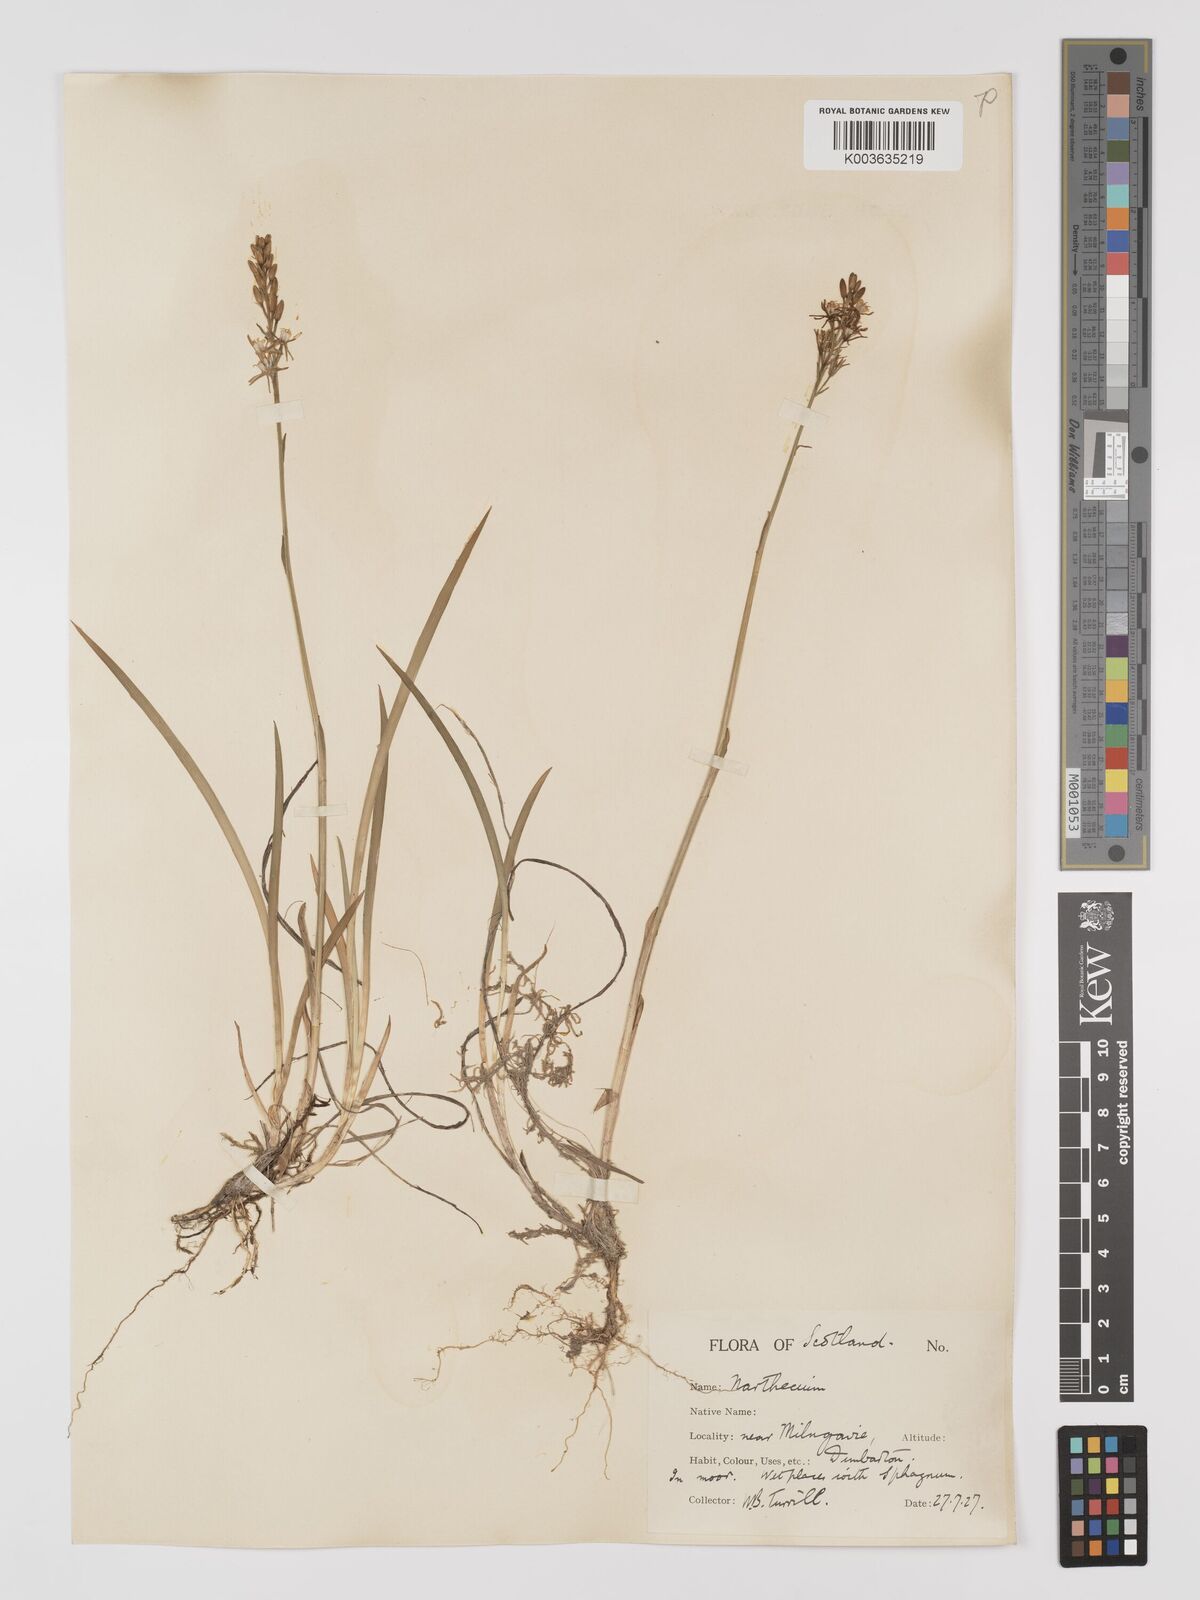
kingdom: Plantae
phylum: Tracheophyta
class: Liliopsida
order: Dioscoreales
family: Nartheciaceae
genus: Narthecium
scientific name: Narthecium
